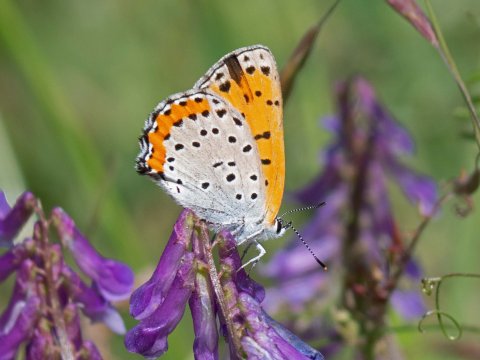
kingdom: Animalia
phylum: Arthropoda
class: Insecta
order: Lepidoptera
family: Sesiidae
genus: Sesia
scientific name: Sesia Lycaena hyllus
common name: Bronze Copper
